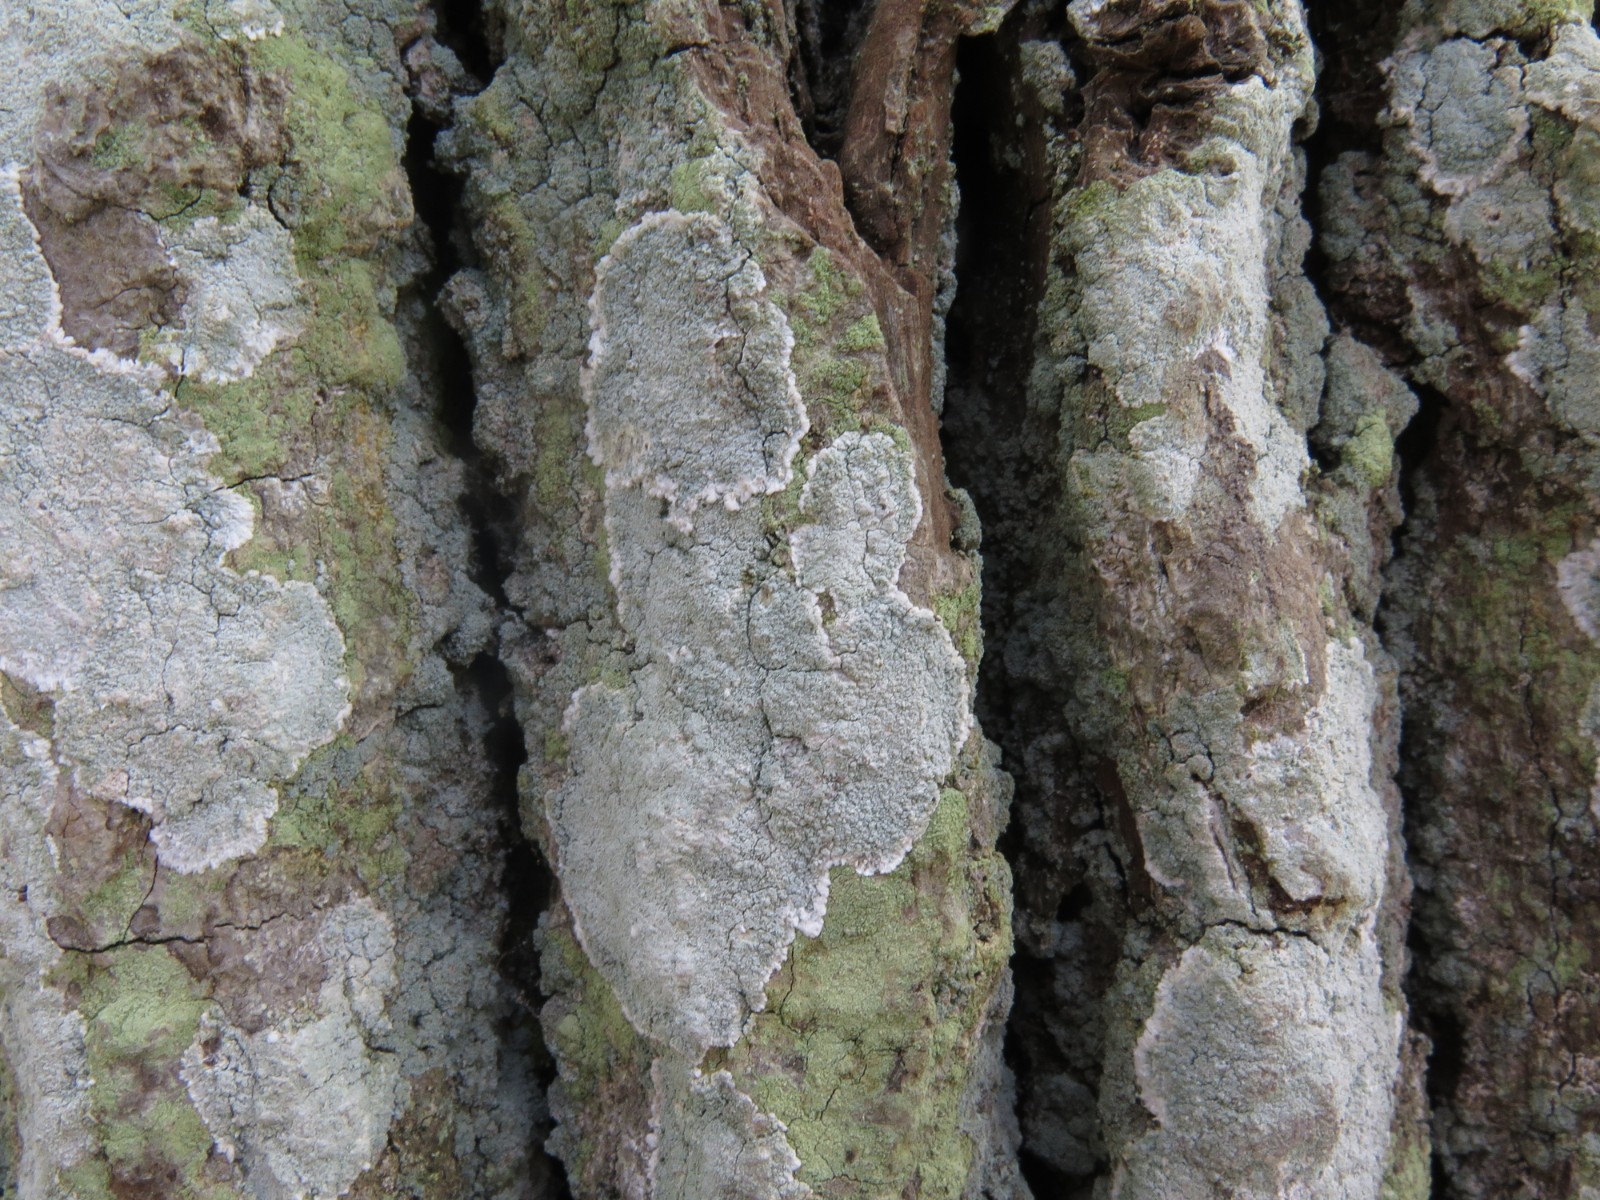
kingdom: Fungi
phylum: Ascomycota
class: Lecanoromycetes
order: Lecanorales
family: Haematommataceae
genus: Haematomma
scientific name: Haematomma ochroleucum
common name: gul trådkantlav
